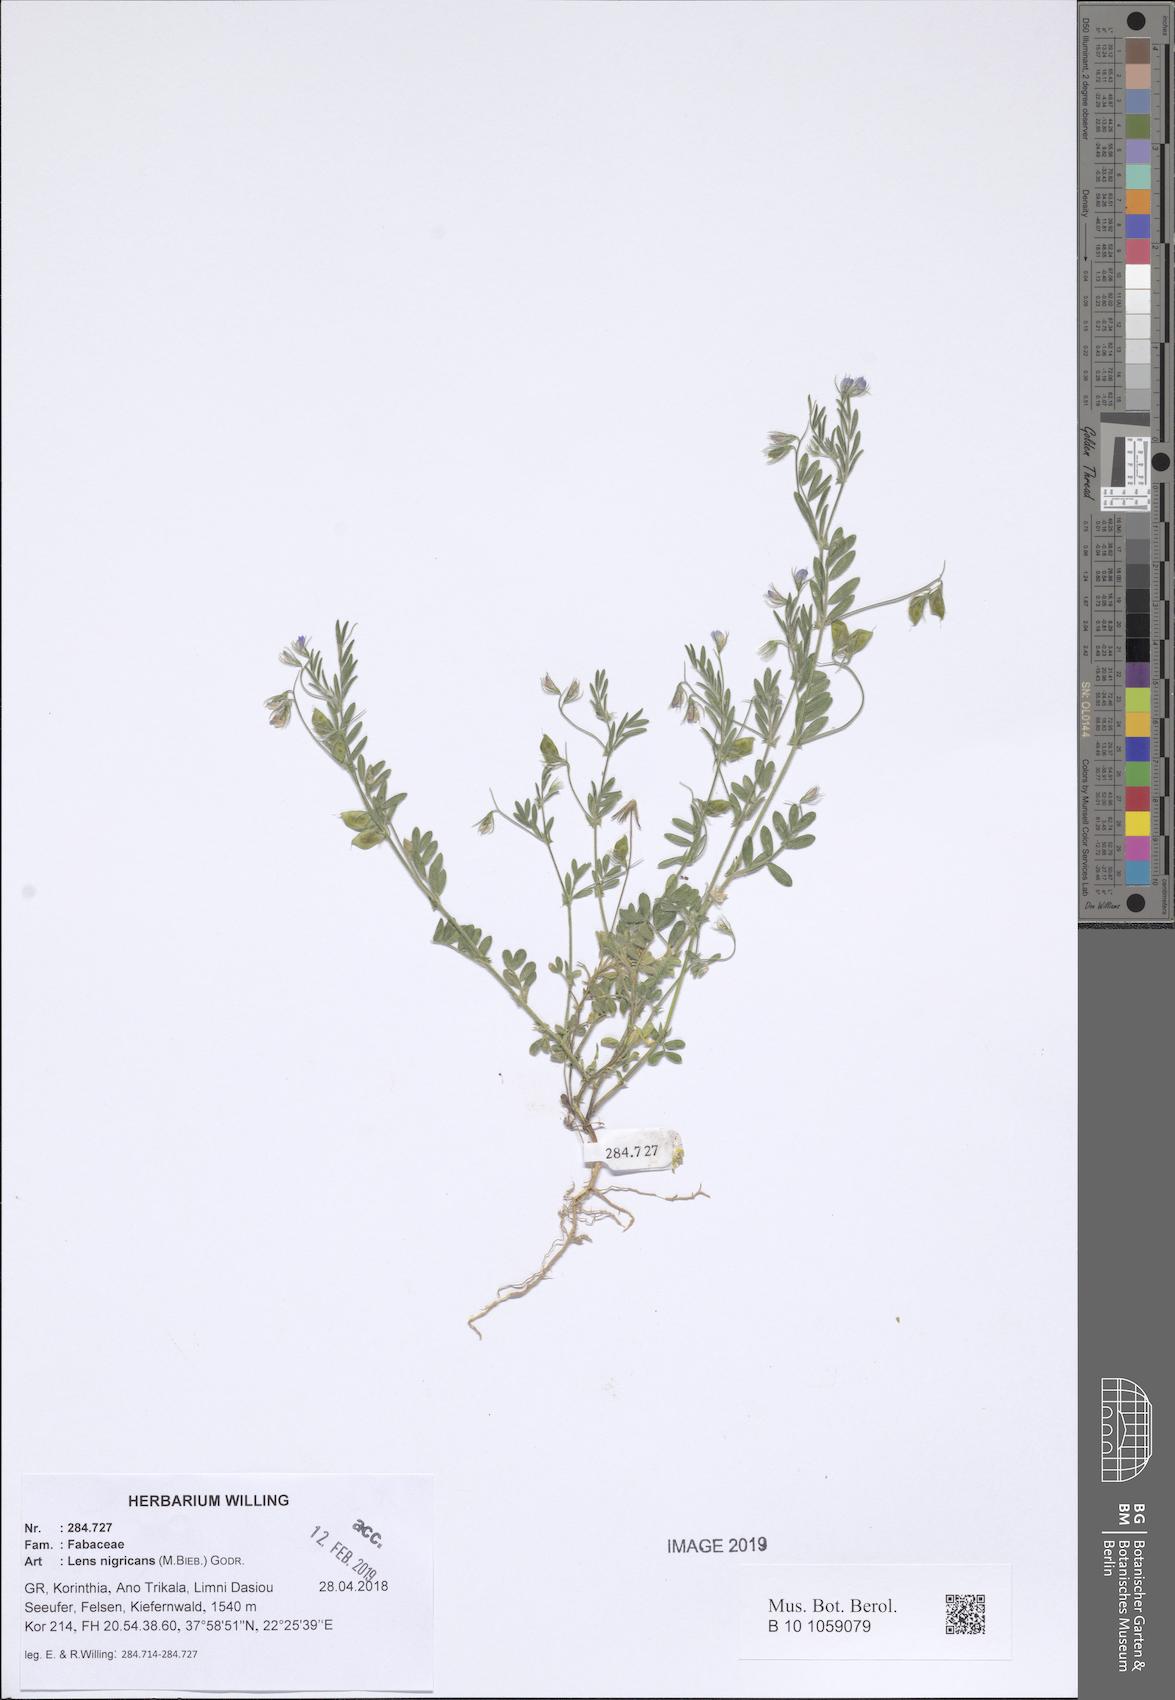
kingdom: Plantae
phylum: Tracheophyta
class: Magnoliopsida
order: Fabales
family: Fabaceae
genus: Vicia
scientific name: Vicia lentoides
